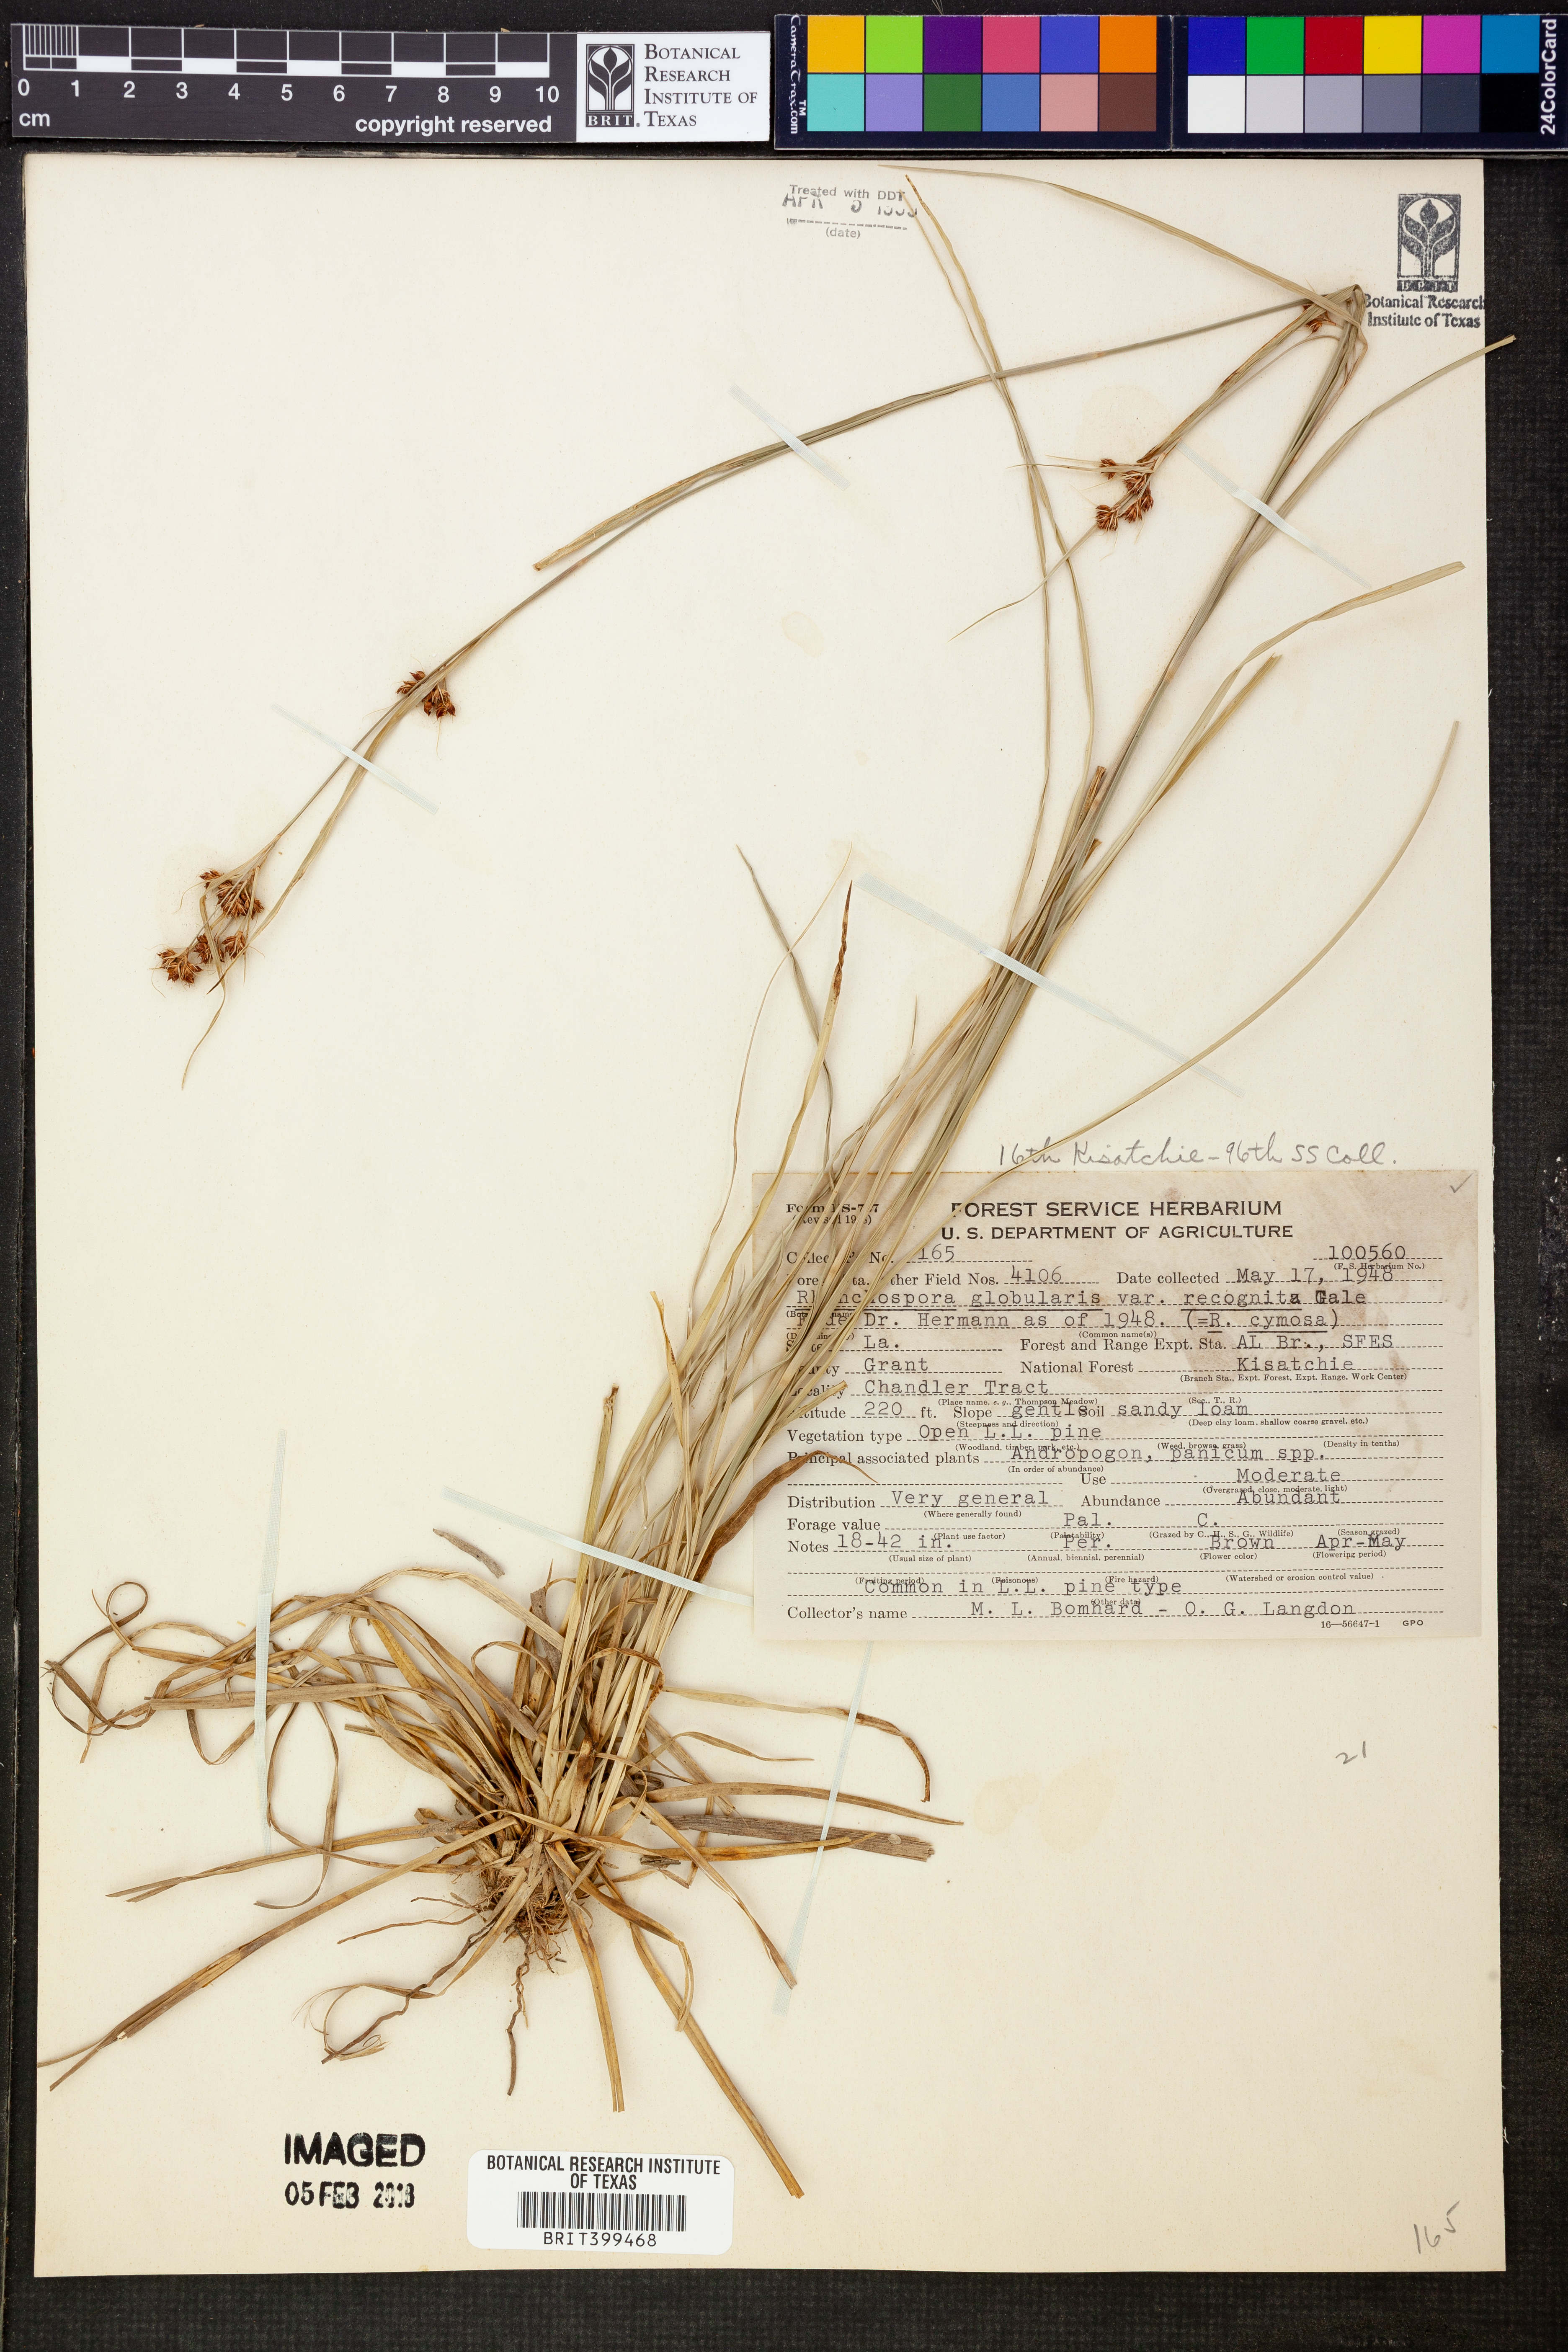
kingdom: Plantae
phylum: Tracheophyta
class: Liliopsida
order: Poales
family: Cyperaceae
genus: Rhynchospora
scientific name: Rhynchospora recognita
